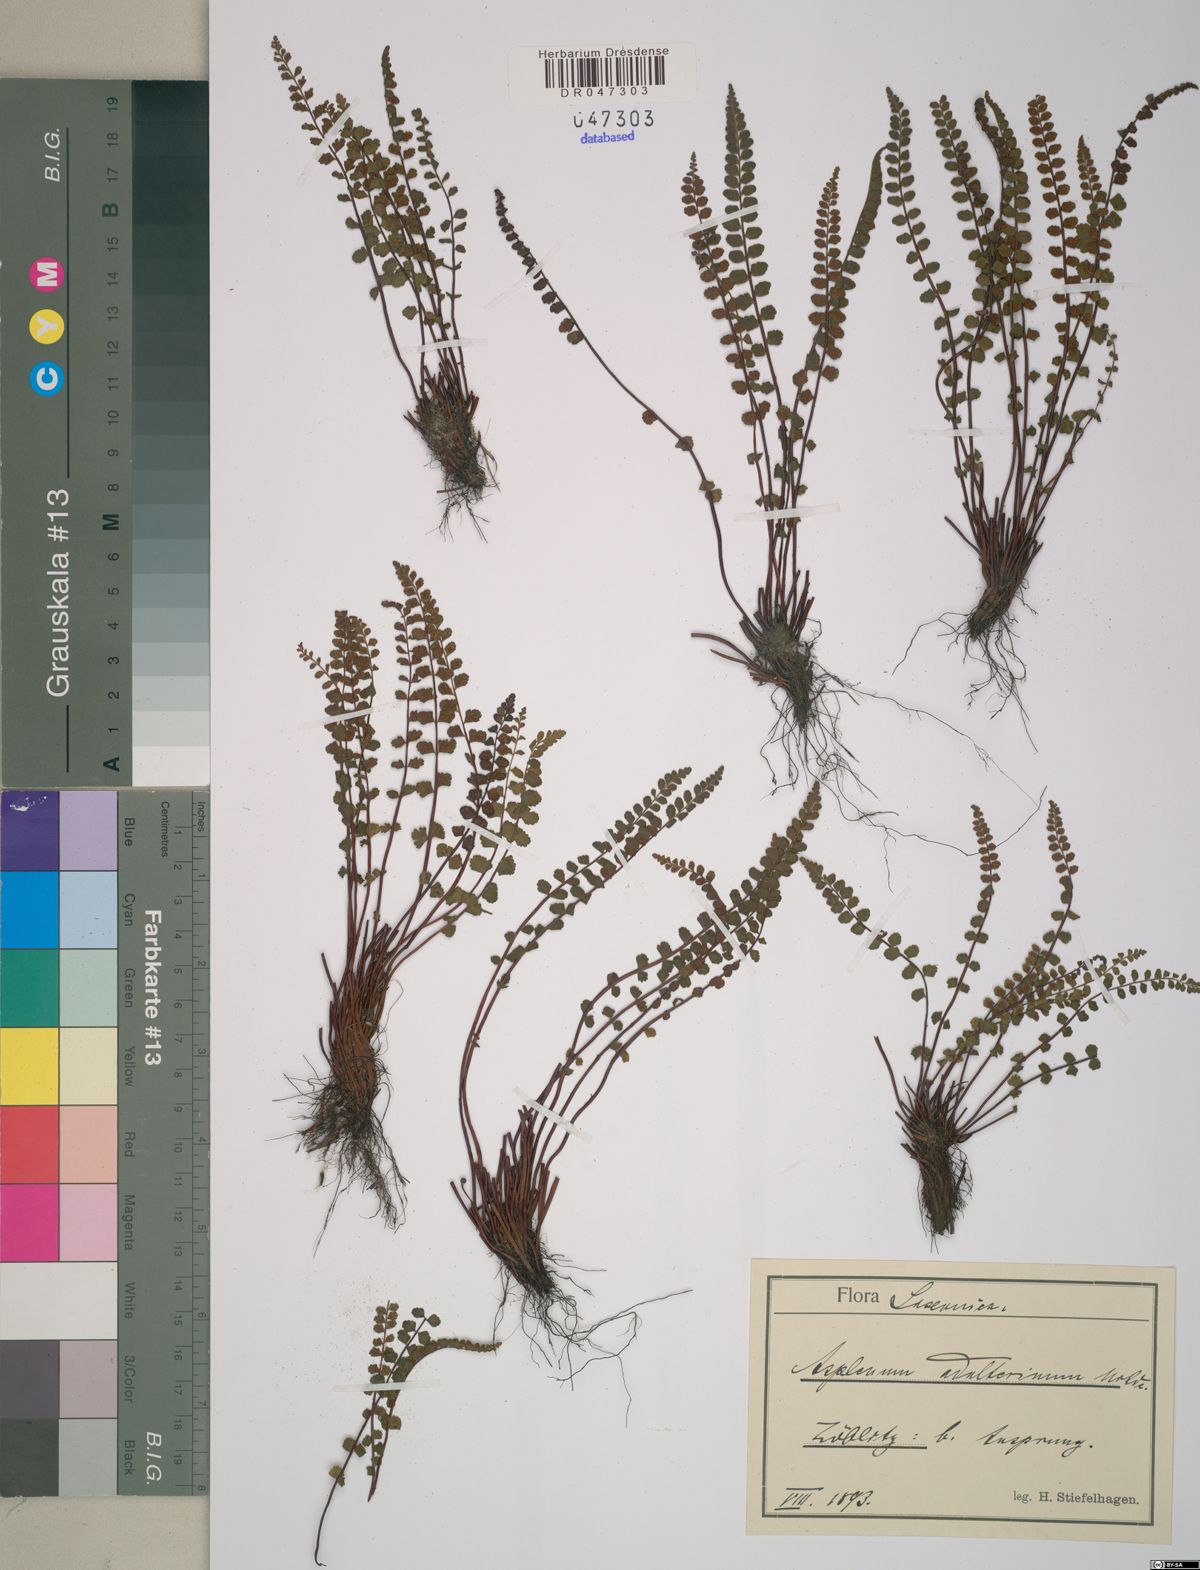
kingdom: Plantae
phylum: Tracheophyta
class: Polypodiopsida
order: Polypodiales
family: Aspleniaceae
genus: Asplenium
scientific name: Asplenium adulterinum
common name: Adulterated spleenwort
